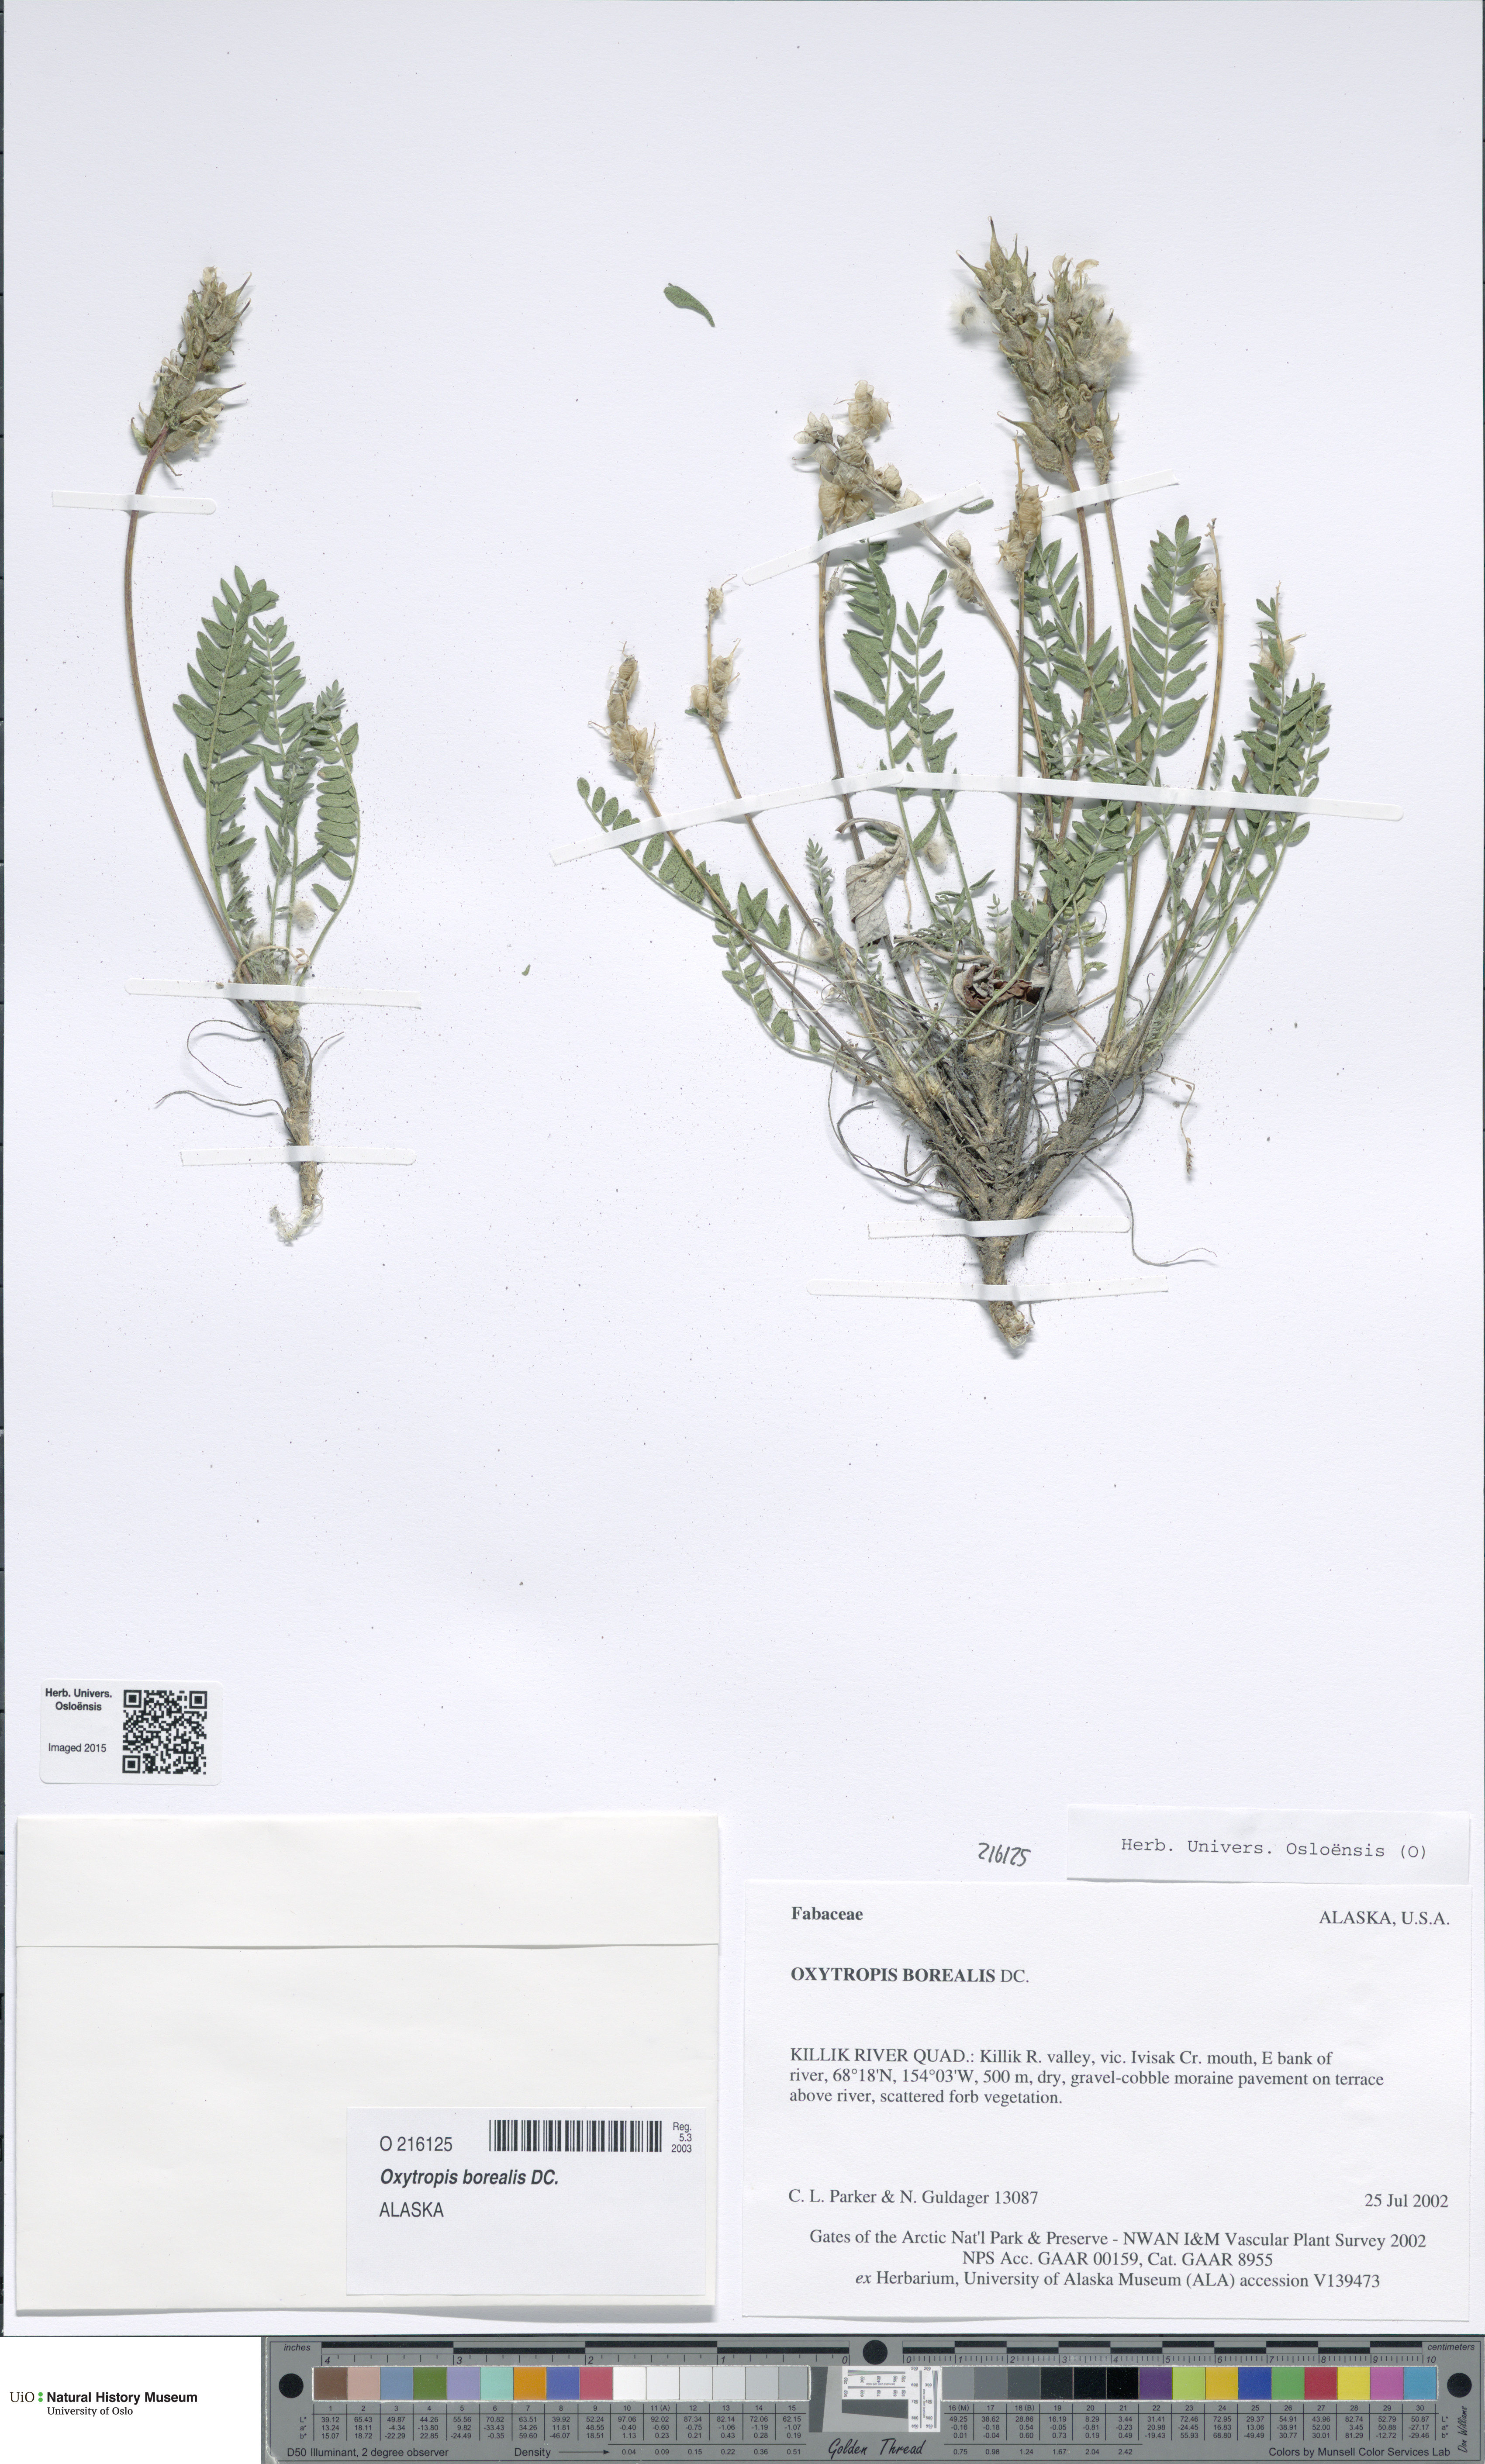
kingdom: Plantae
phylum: Tracheophyta
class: Magnoliopsida
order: Fabales
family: Fabaceae
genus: Oxytropis
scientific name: Oxytropis borealis
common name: Boreal locoweed
